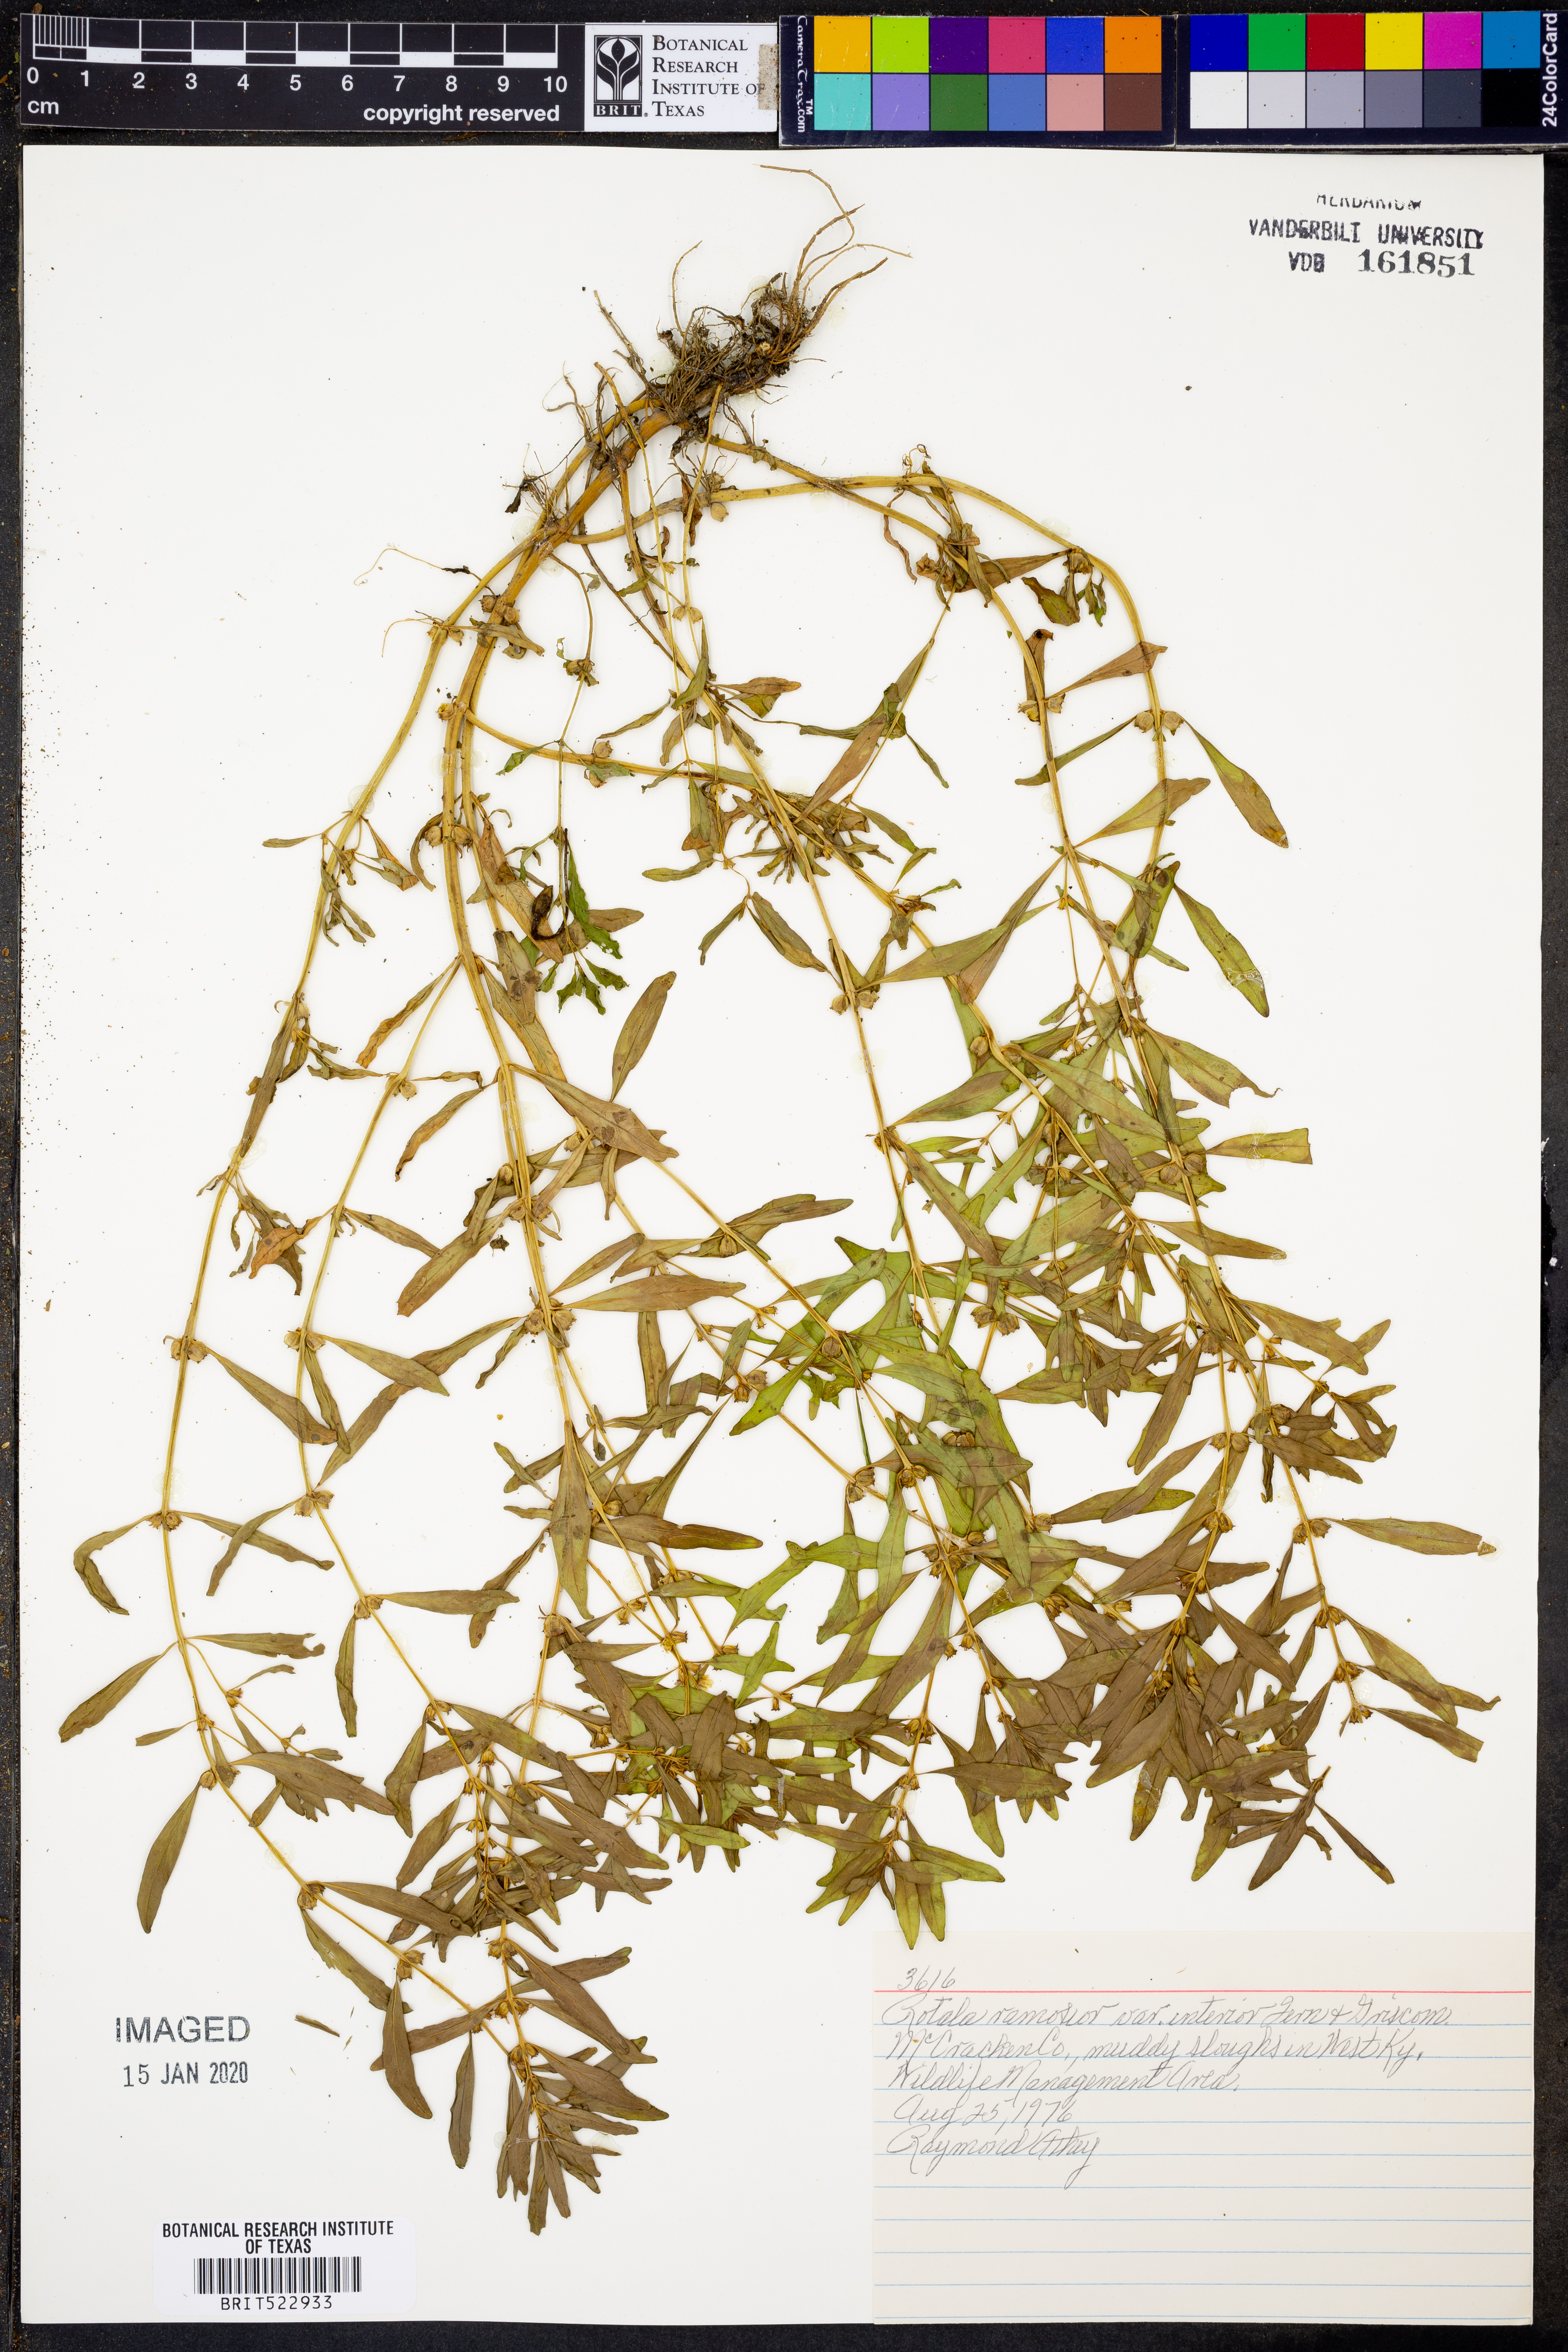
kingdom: Plantae
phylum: Tracheophyta
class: Magnoliopsida
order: Myrtales
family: Lythraceae
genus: Rotala
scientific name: Rotala ramosior
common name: Lowland rotala
